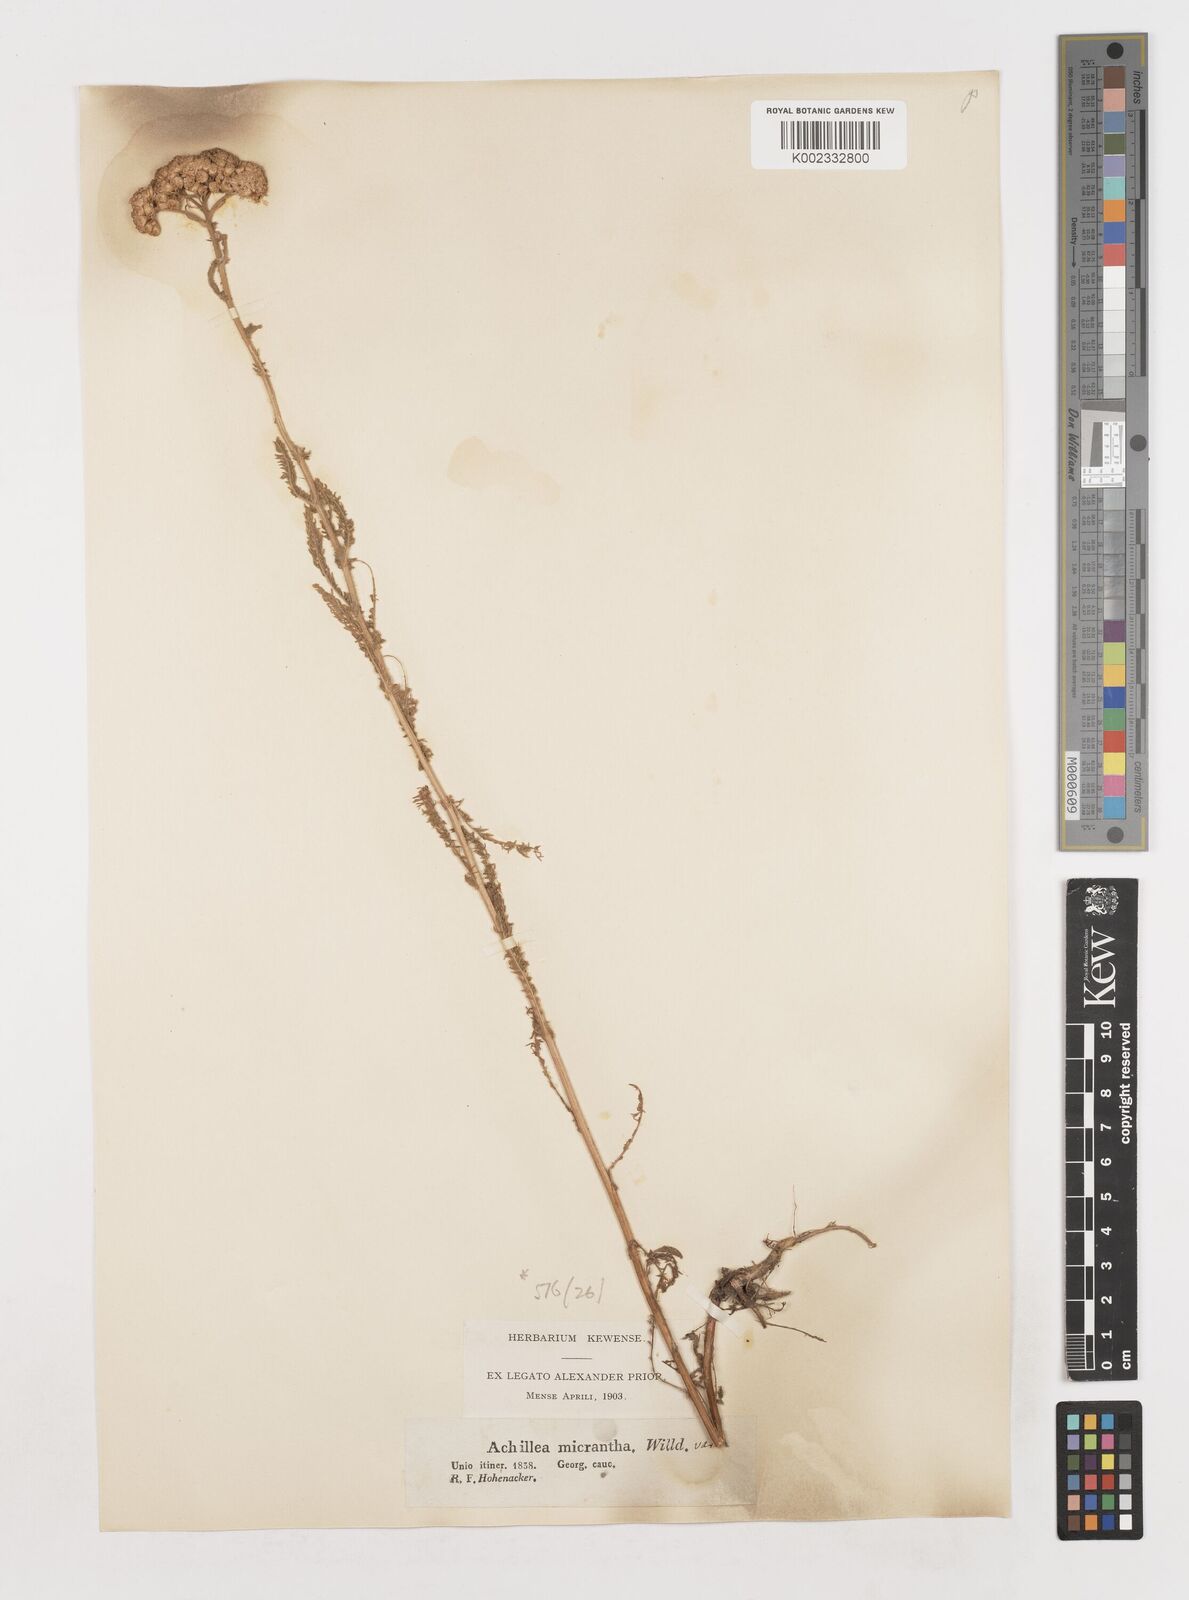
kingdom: Plantae
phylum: Tracheophyta
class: Magnoliopsida
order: Asterales
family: Asteraceae
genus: Achillea
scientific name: Achillea arabica
